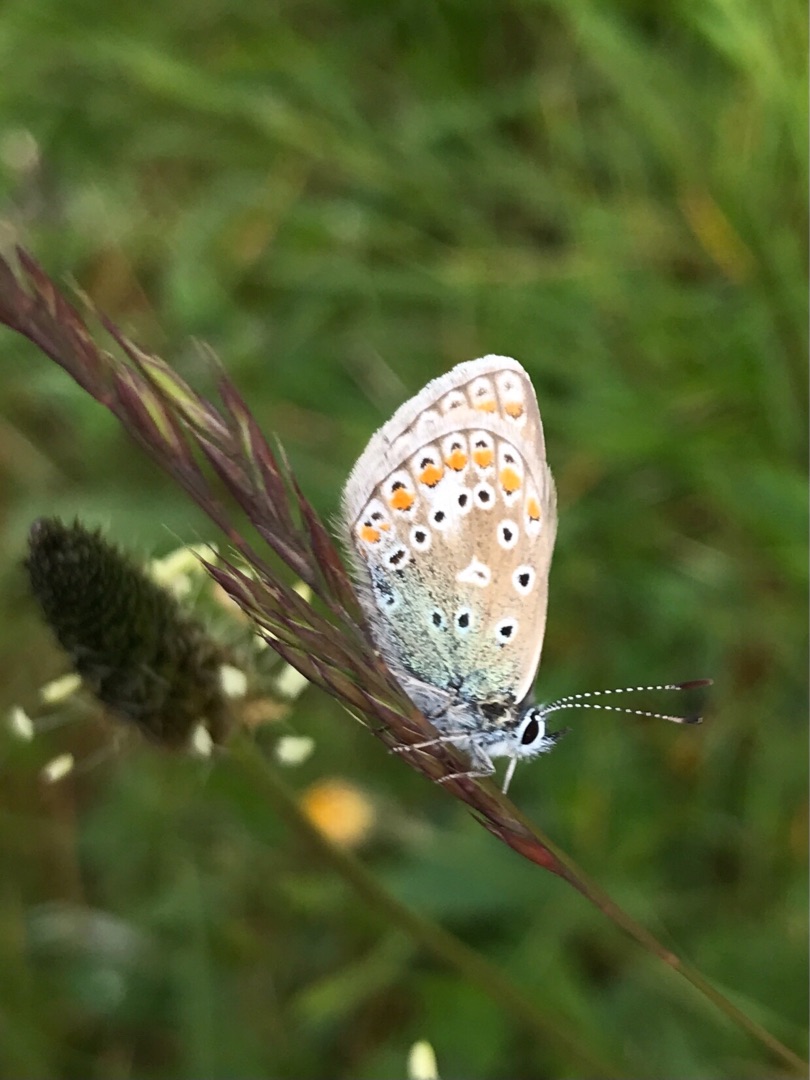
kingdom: Animalia
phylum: Arthropoda
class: Insecta
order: Lepidoptera
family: Lycaenidae
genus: Polyommatus
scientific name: Polyommatus icarus
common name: Almindelig blåfugl
